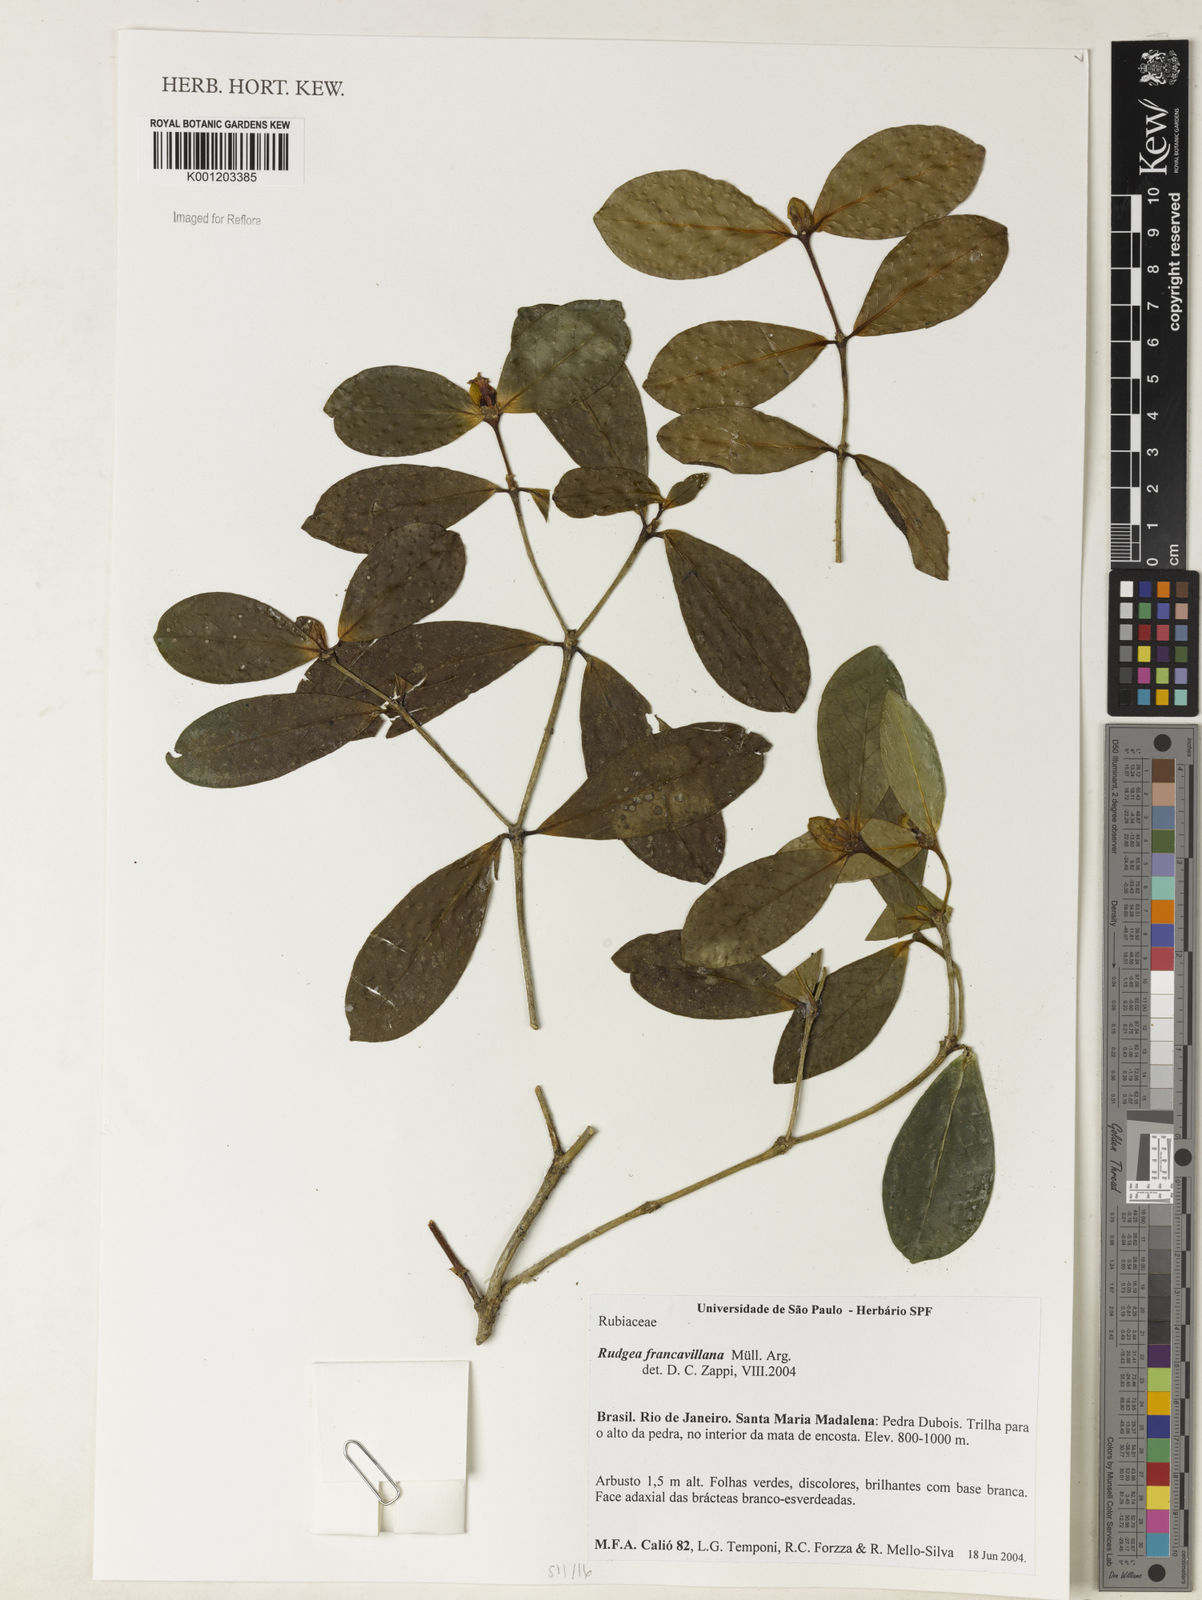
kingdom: Plantae
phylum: Tracheophyta
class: Magnoliopsida
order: Gentianales
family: Rubiaceae
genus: Rudgea
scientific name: Rudgea
